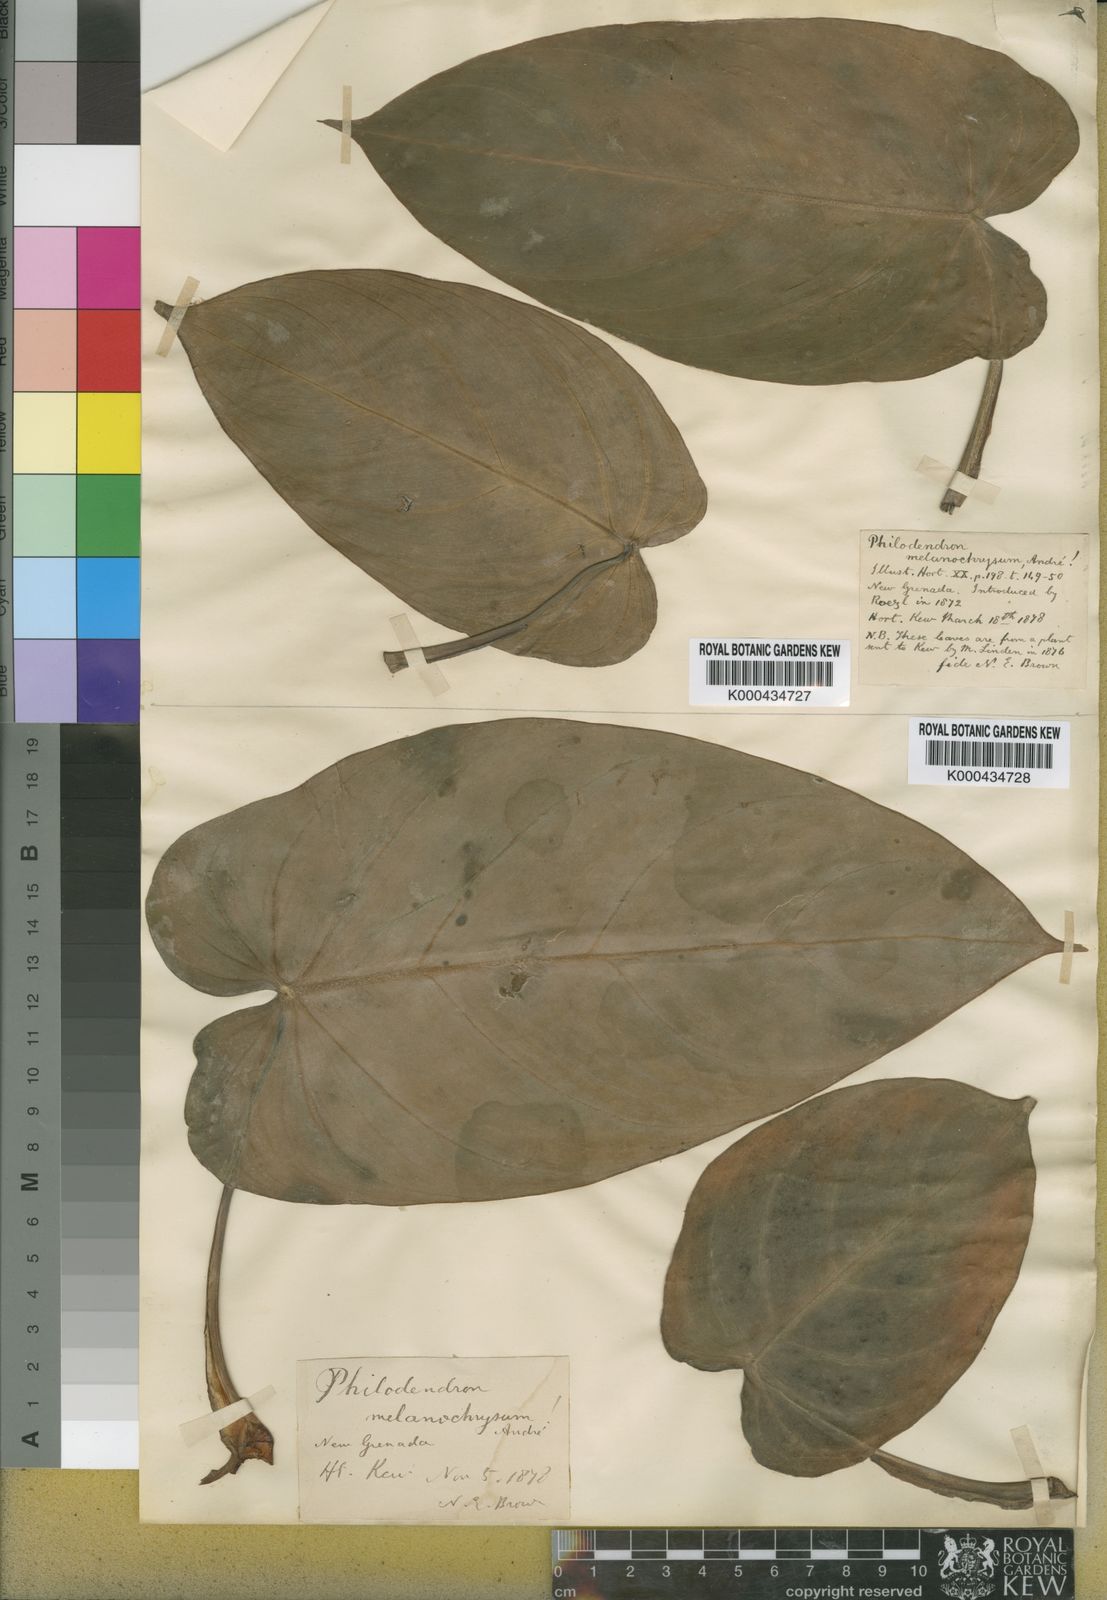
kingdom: Plantae
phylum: Tracheophyta
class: Liliopsida
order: Alismatales
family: Araceae
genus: Philodendron
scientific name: Philodendron melanochrysum
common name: Black-gold philodendron
